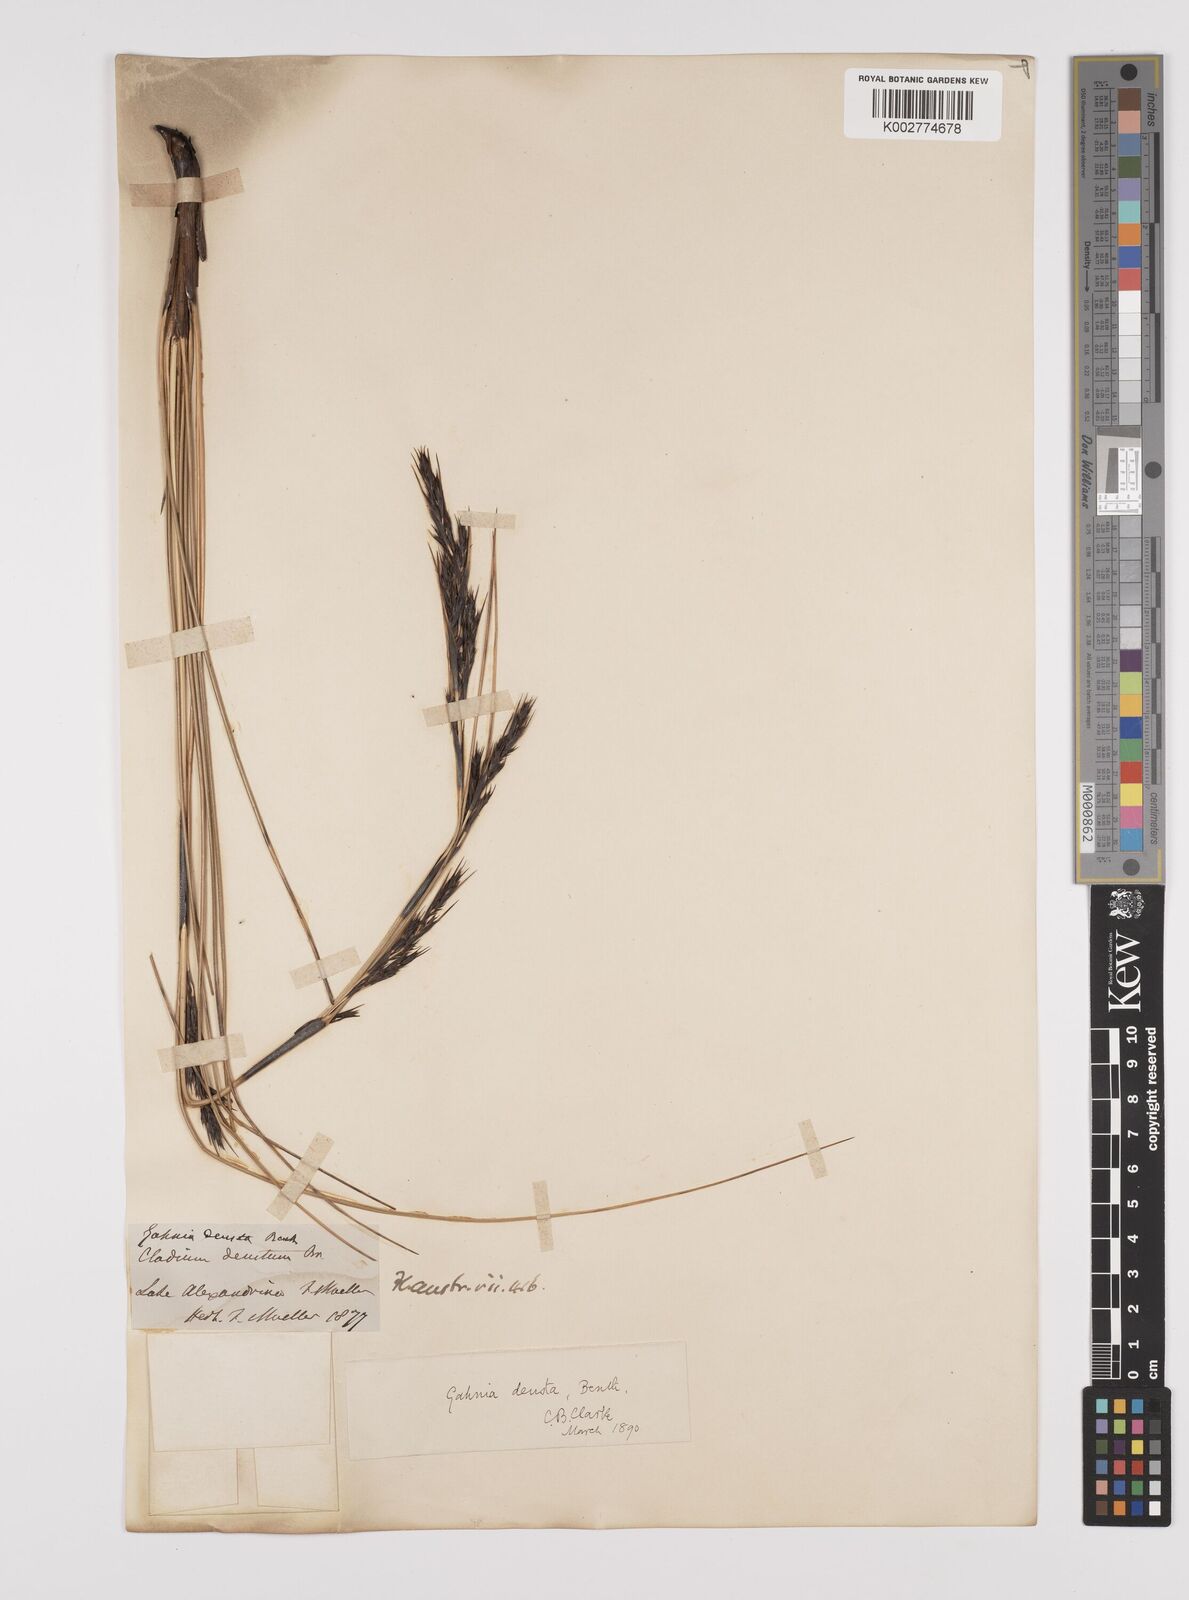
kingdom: Plantae
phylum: Tracheophyta
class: Liliopsida
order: Poales
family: Cyperaceae
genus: Gahnia
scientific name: Gahnia deusta
